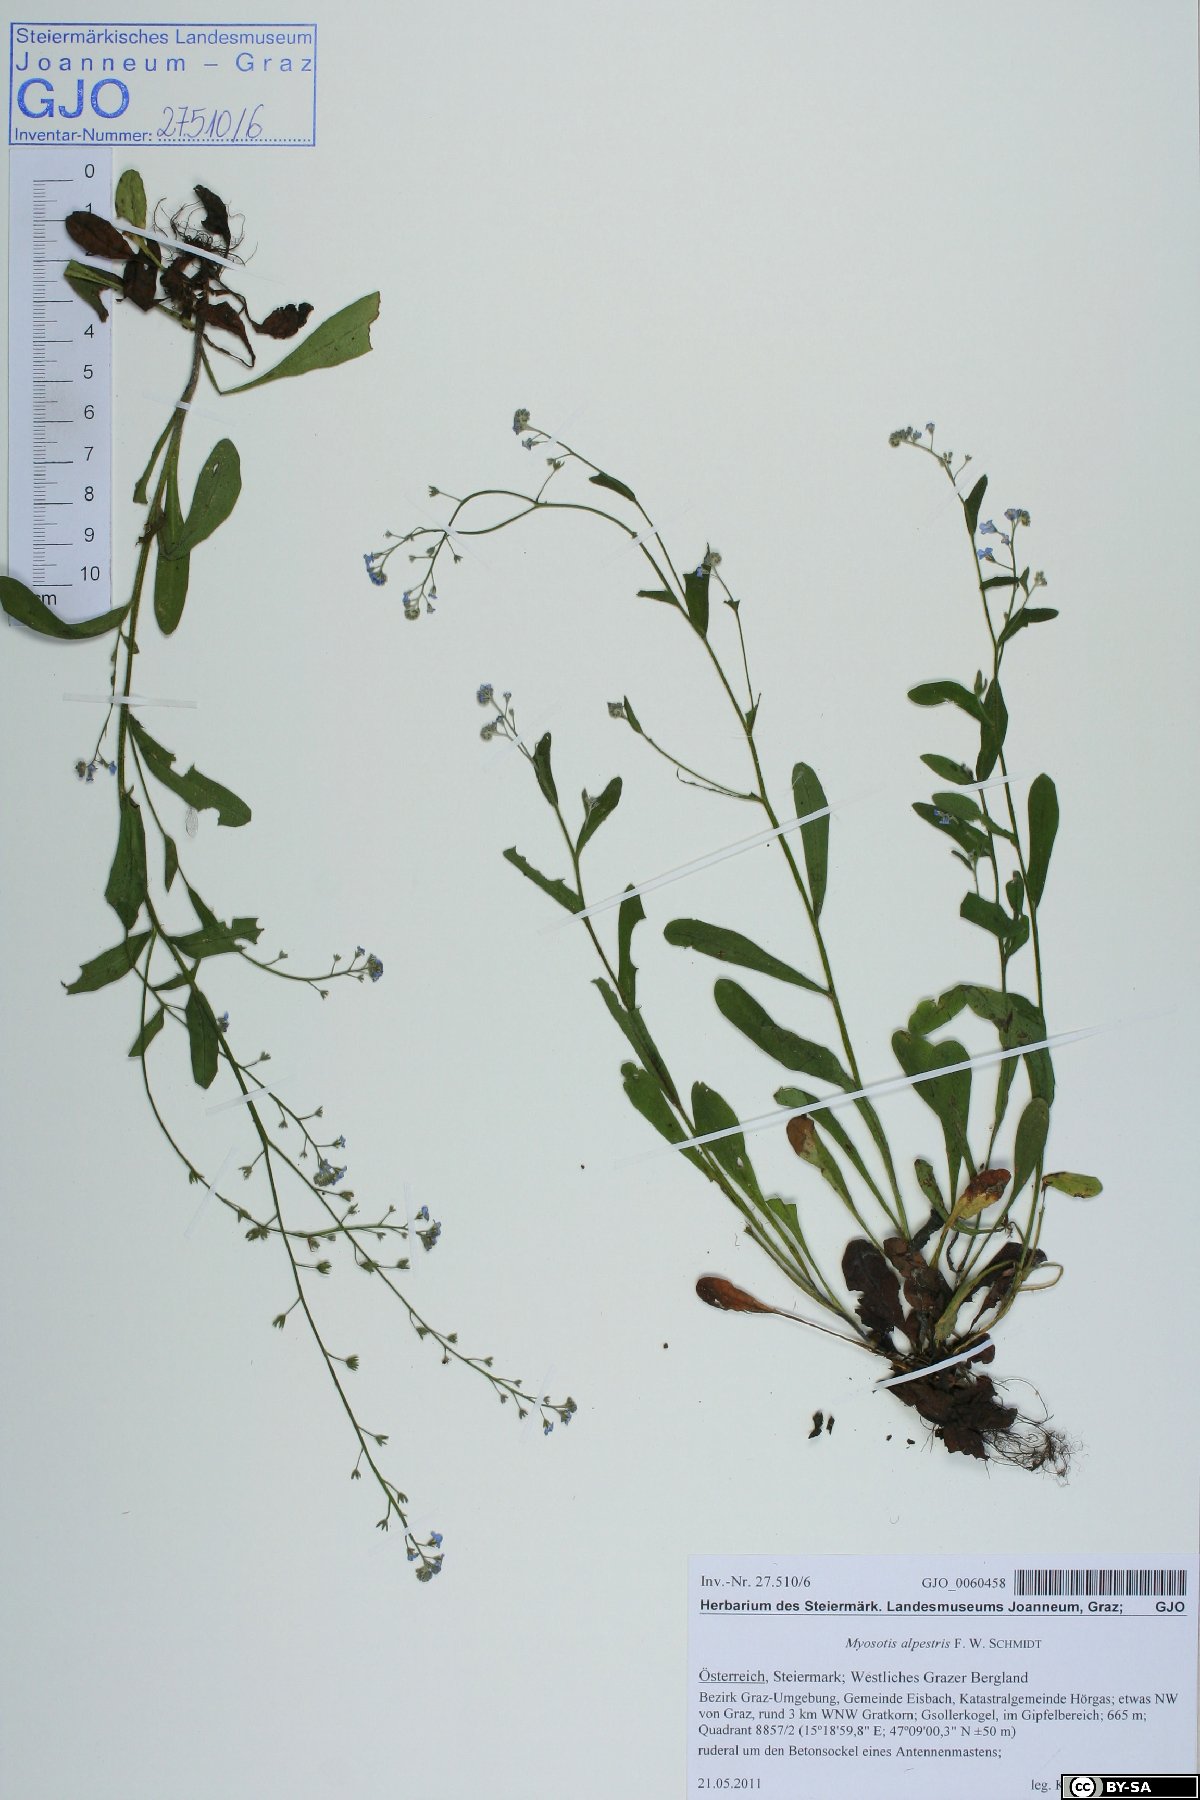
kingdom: Plantae
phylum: Tracheophyta
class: Magnoliopsida
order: Boraginales
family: Boraginaceae
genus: Myosotis
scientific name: Myosotis alpestris
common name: Alpine forget-me-not
